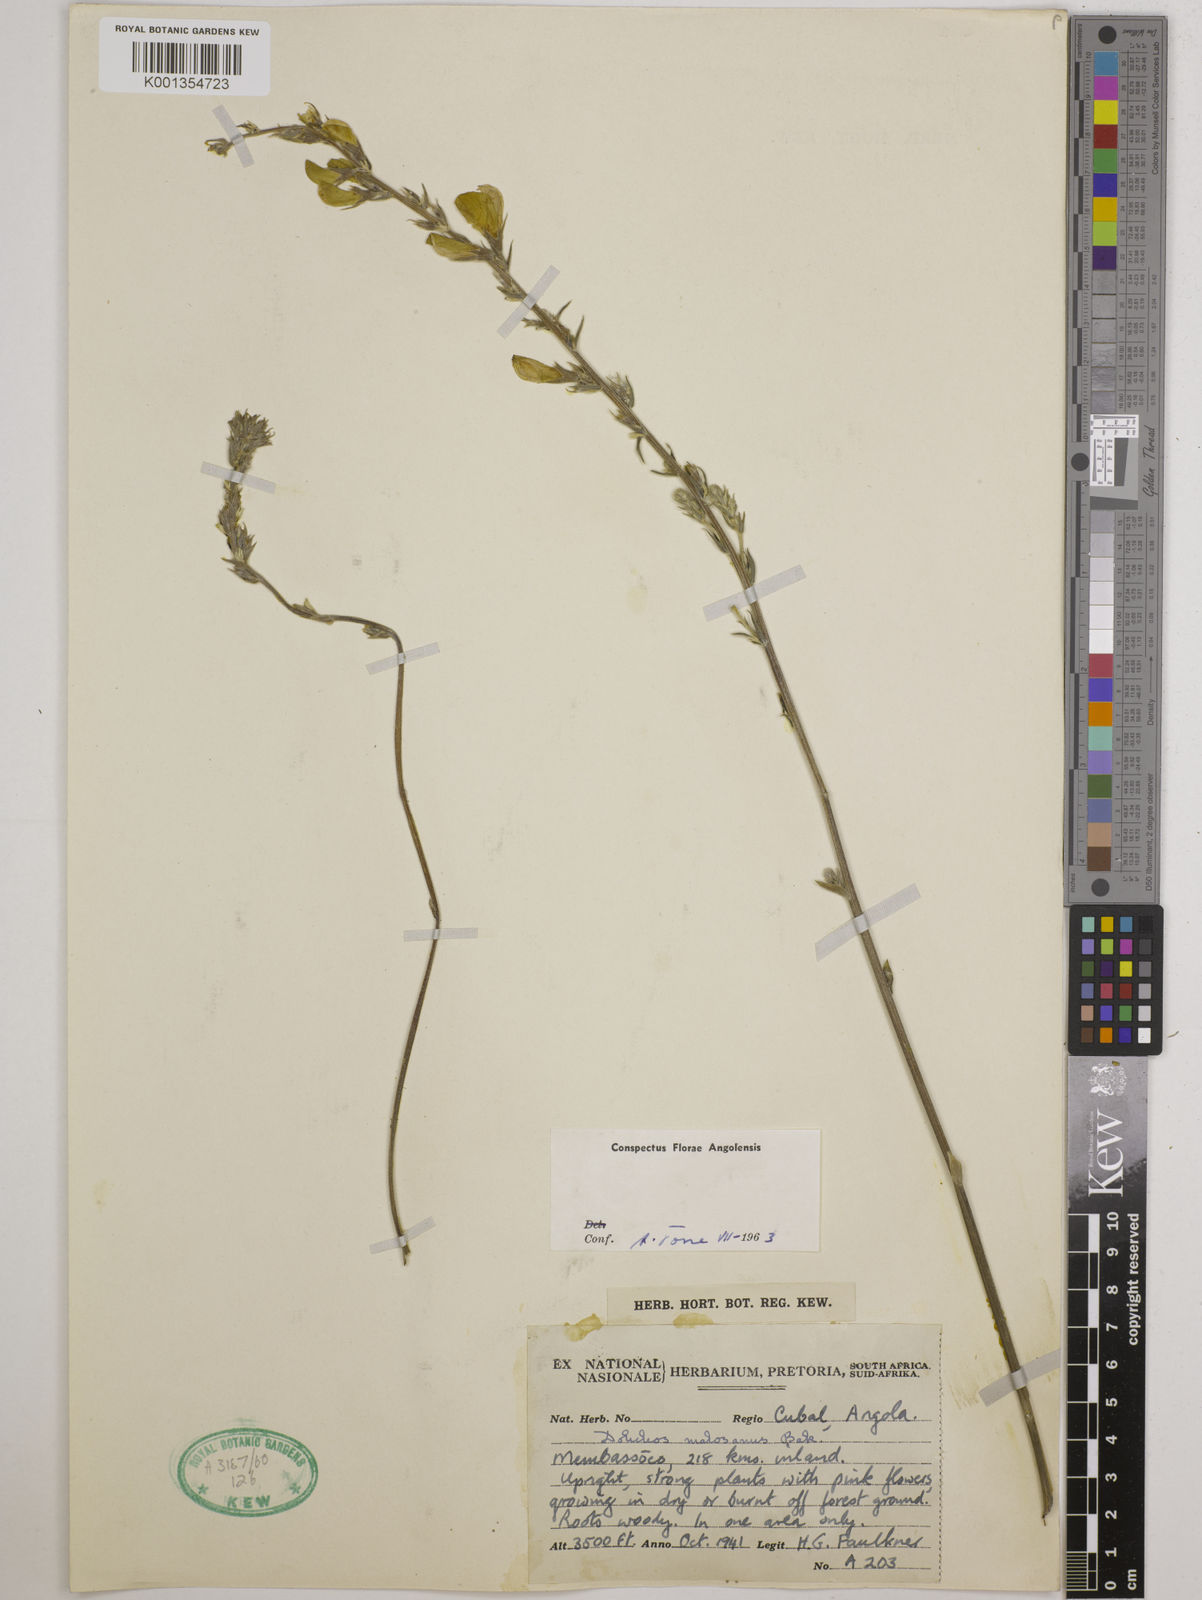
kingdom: Plantae
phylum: Tracheophyta
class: Magnoliopsida
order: Fabales
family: Fabaceae
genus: Dolichos
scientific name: Dolichos kilimandscharicus
